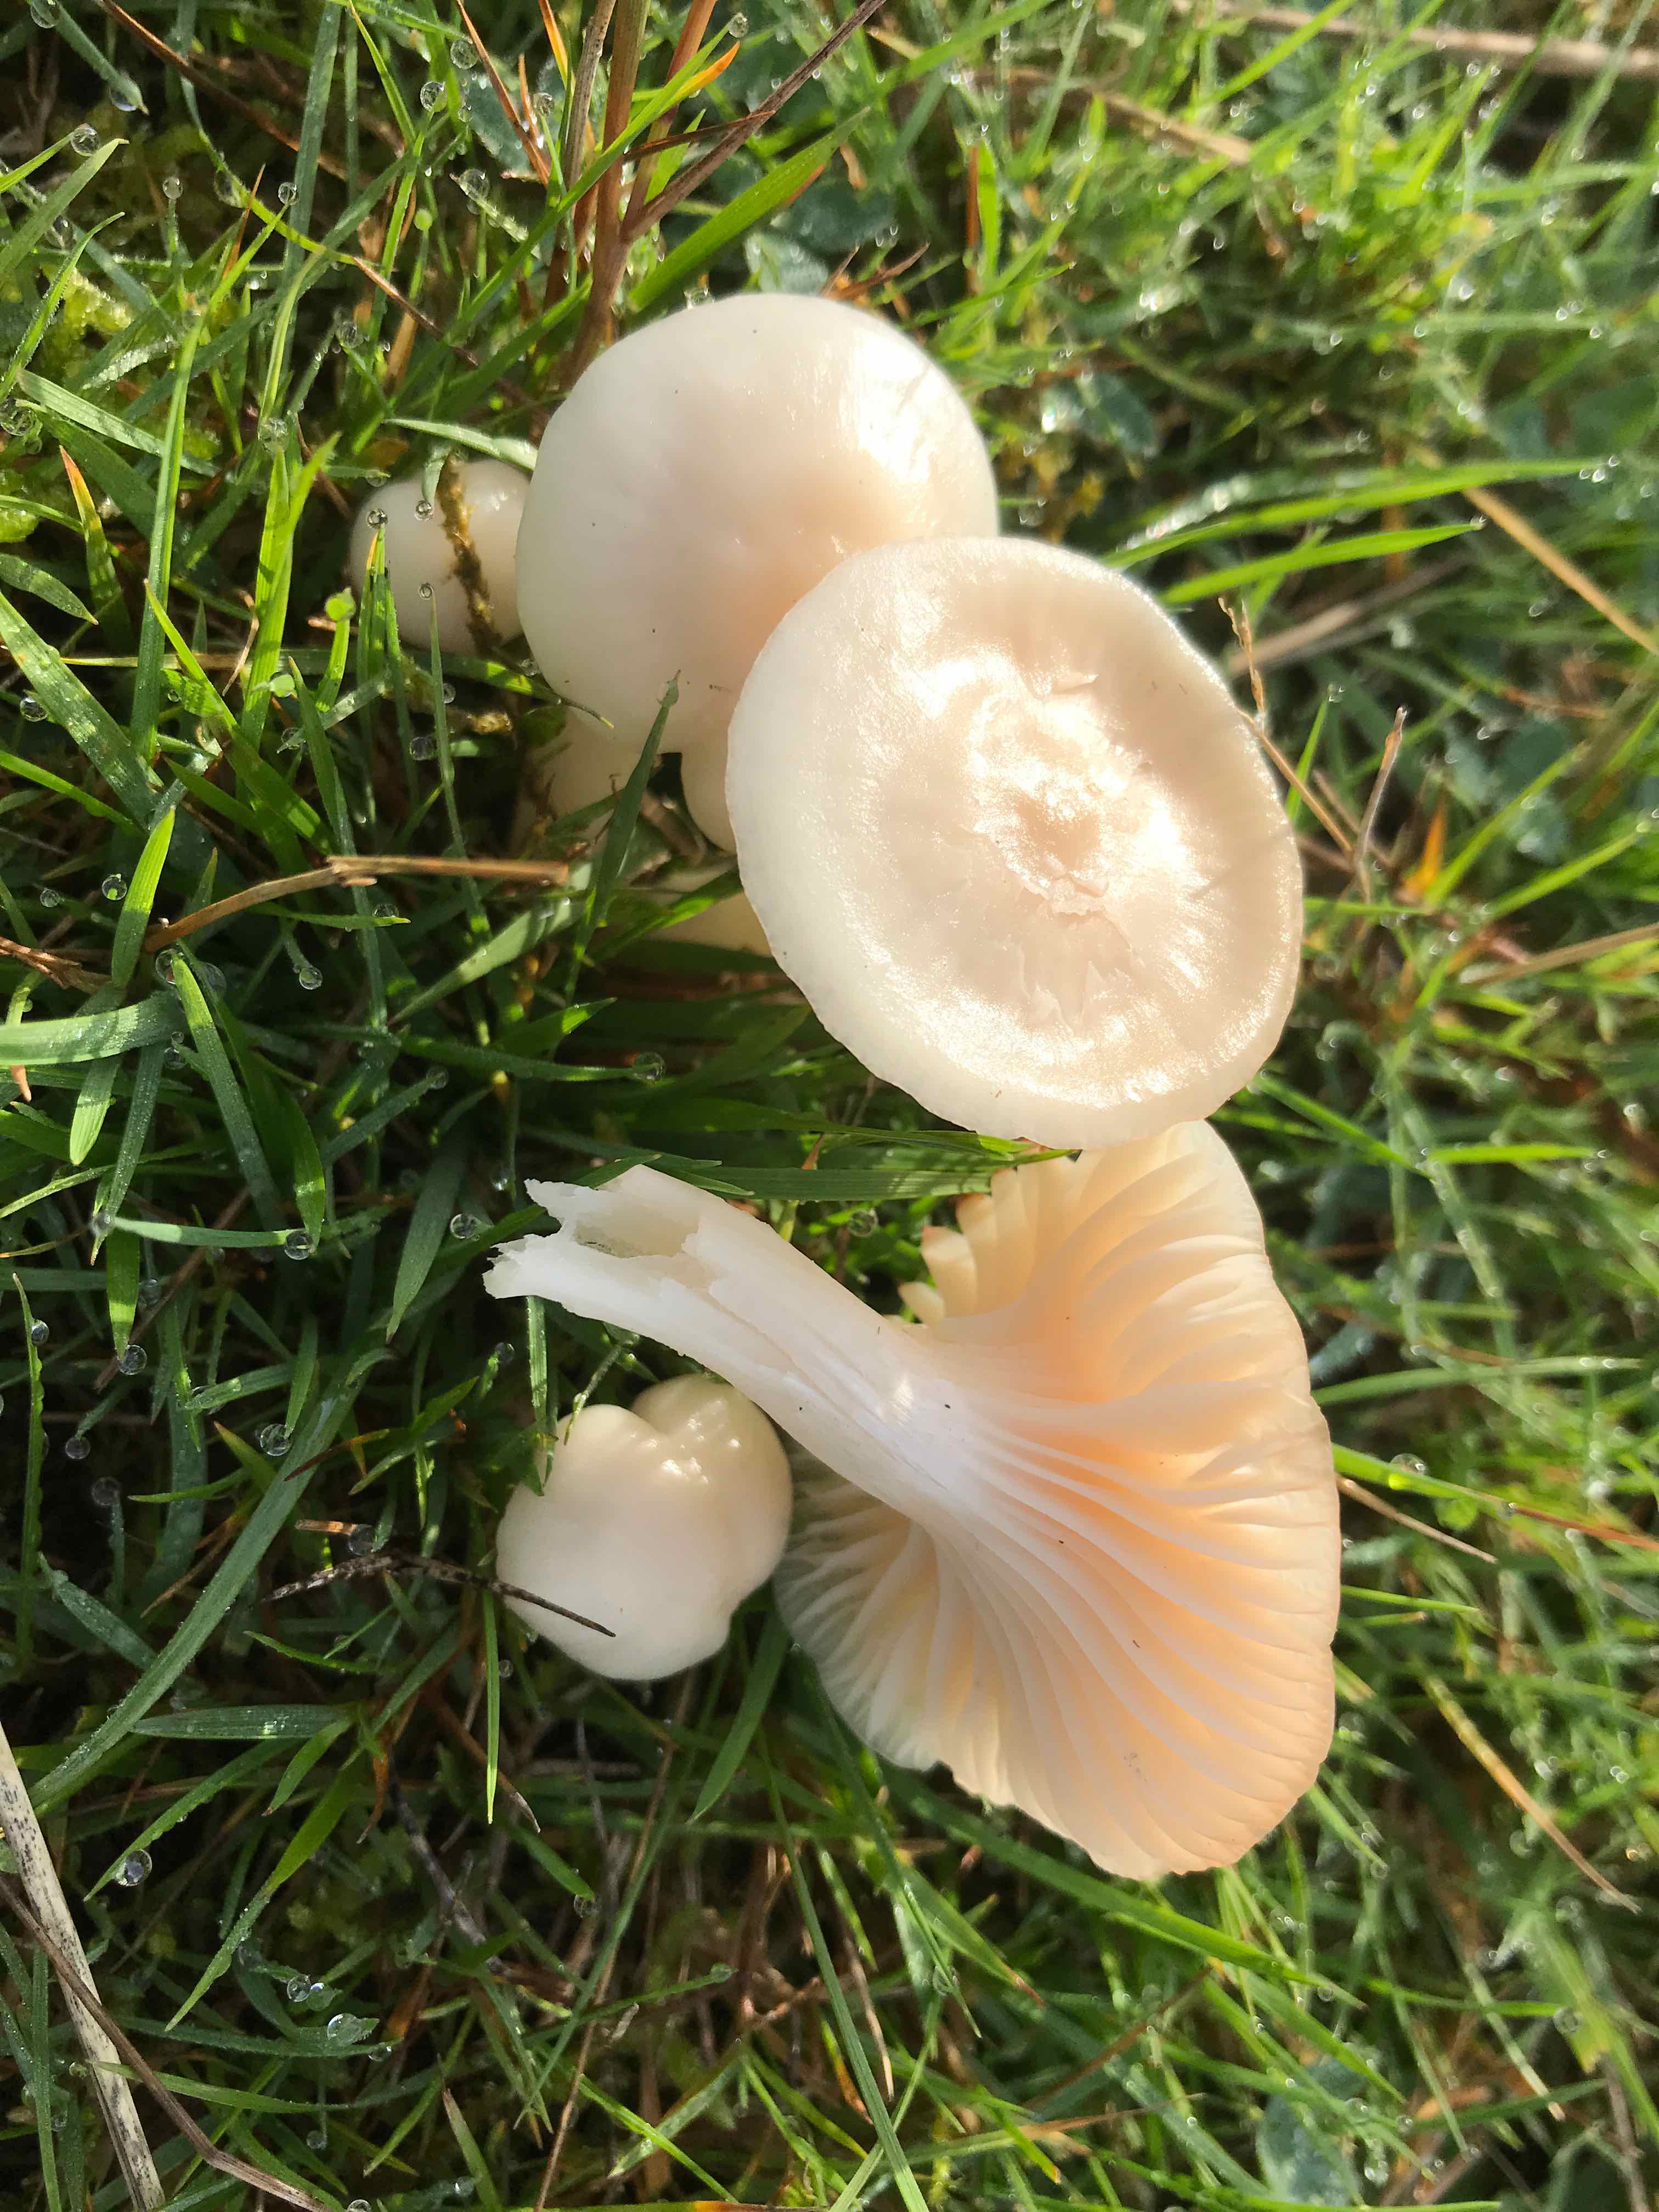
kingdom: Fungi
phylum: Basidiomycota
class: Agaricomycetes
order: Agaricales
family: Hygrophoraceae
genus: Cuphophyllus
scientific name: Cuphophyllus
